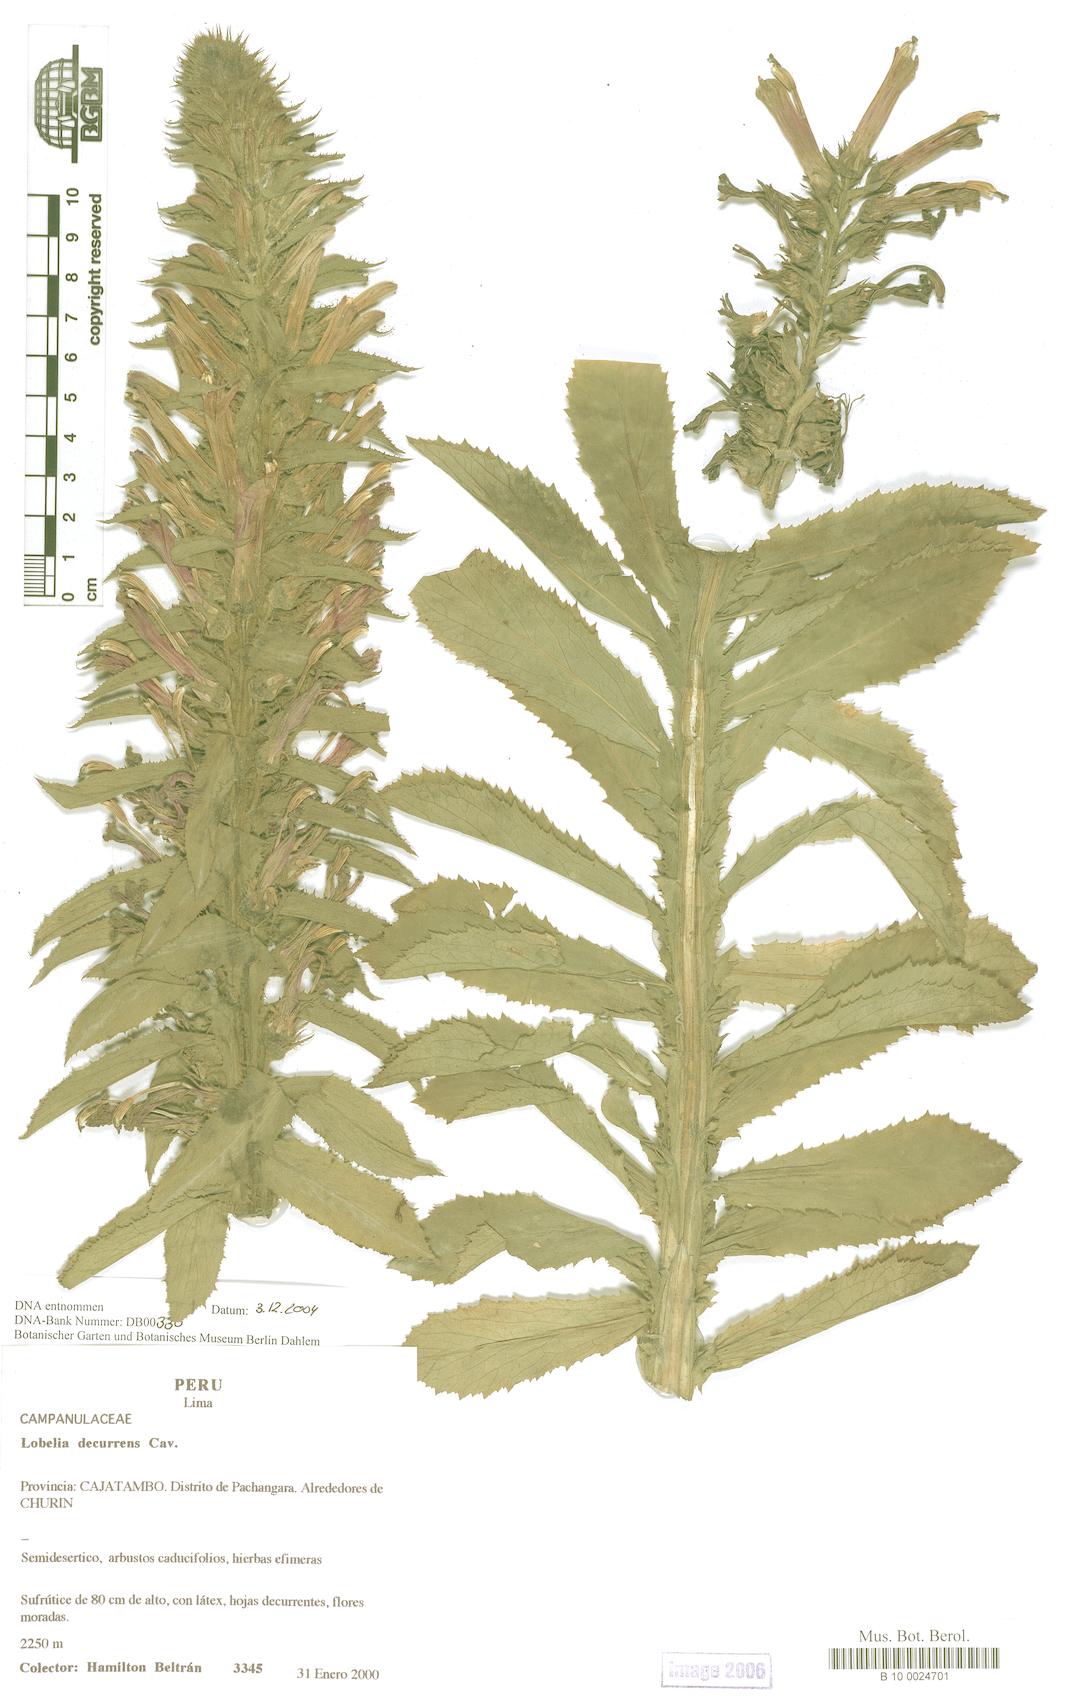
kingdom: Plantae
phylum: Tracheophyta
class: Magnoliopsida
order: Asterales
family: Campanulaceae
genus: Lobelia
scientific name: Lobelia decurrens
